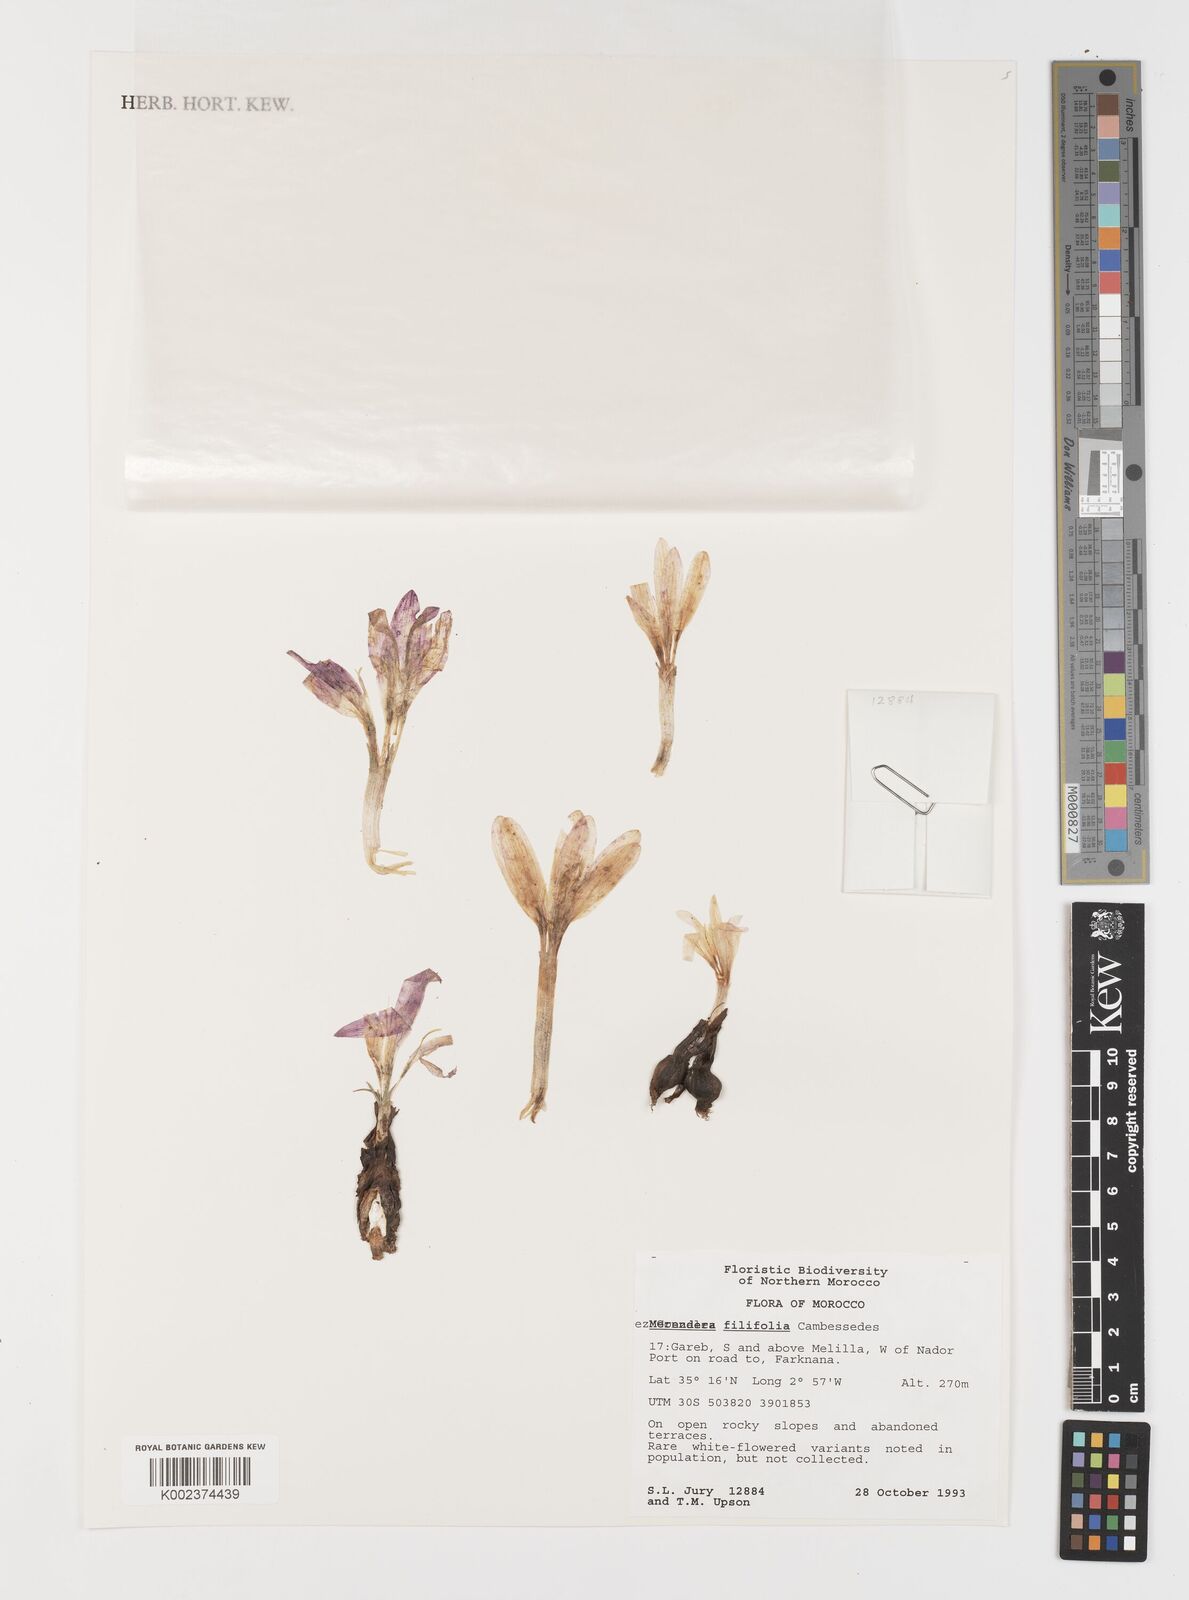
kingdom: Plantae
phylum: Tracheophyta
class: Liliopsida
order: Liliales
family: Colchicaceae
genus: Colchicum
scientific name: Colchicum filifolium
